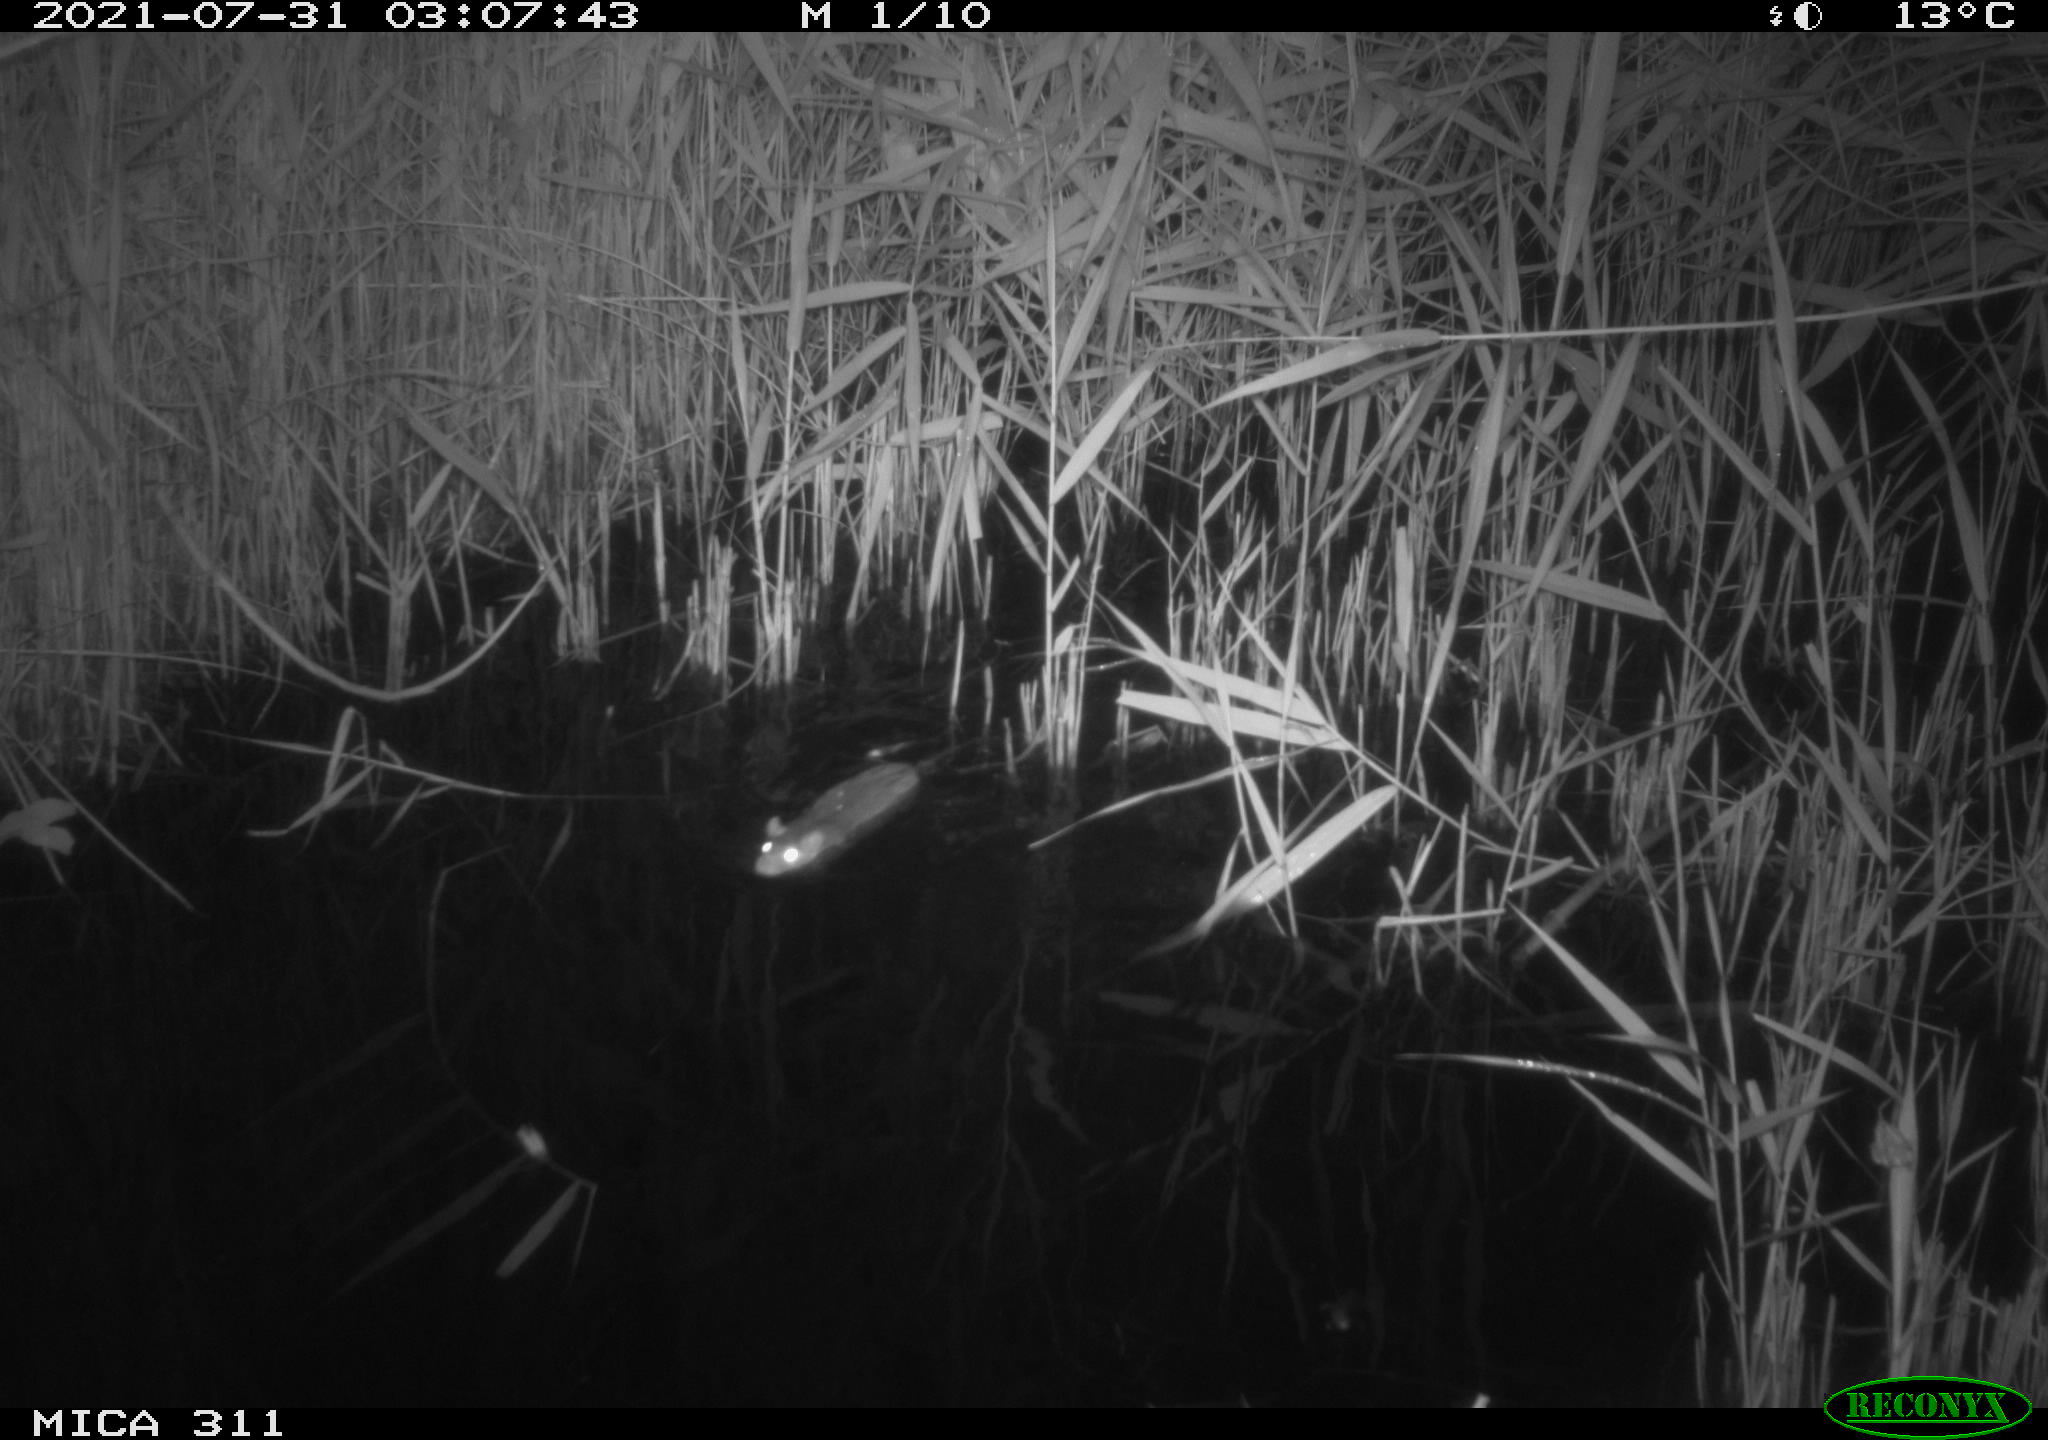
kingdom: Animalia
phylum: Chordata
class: Mammalia
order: Rodentia
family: Muridae
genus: Rattus
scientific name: Rattus norvegicus
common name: Brown rat
